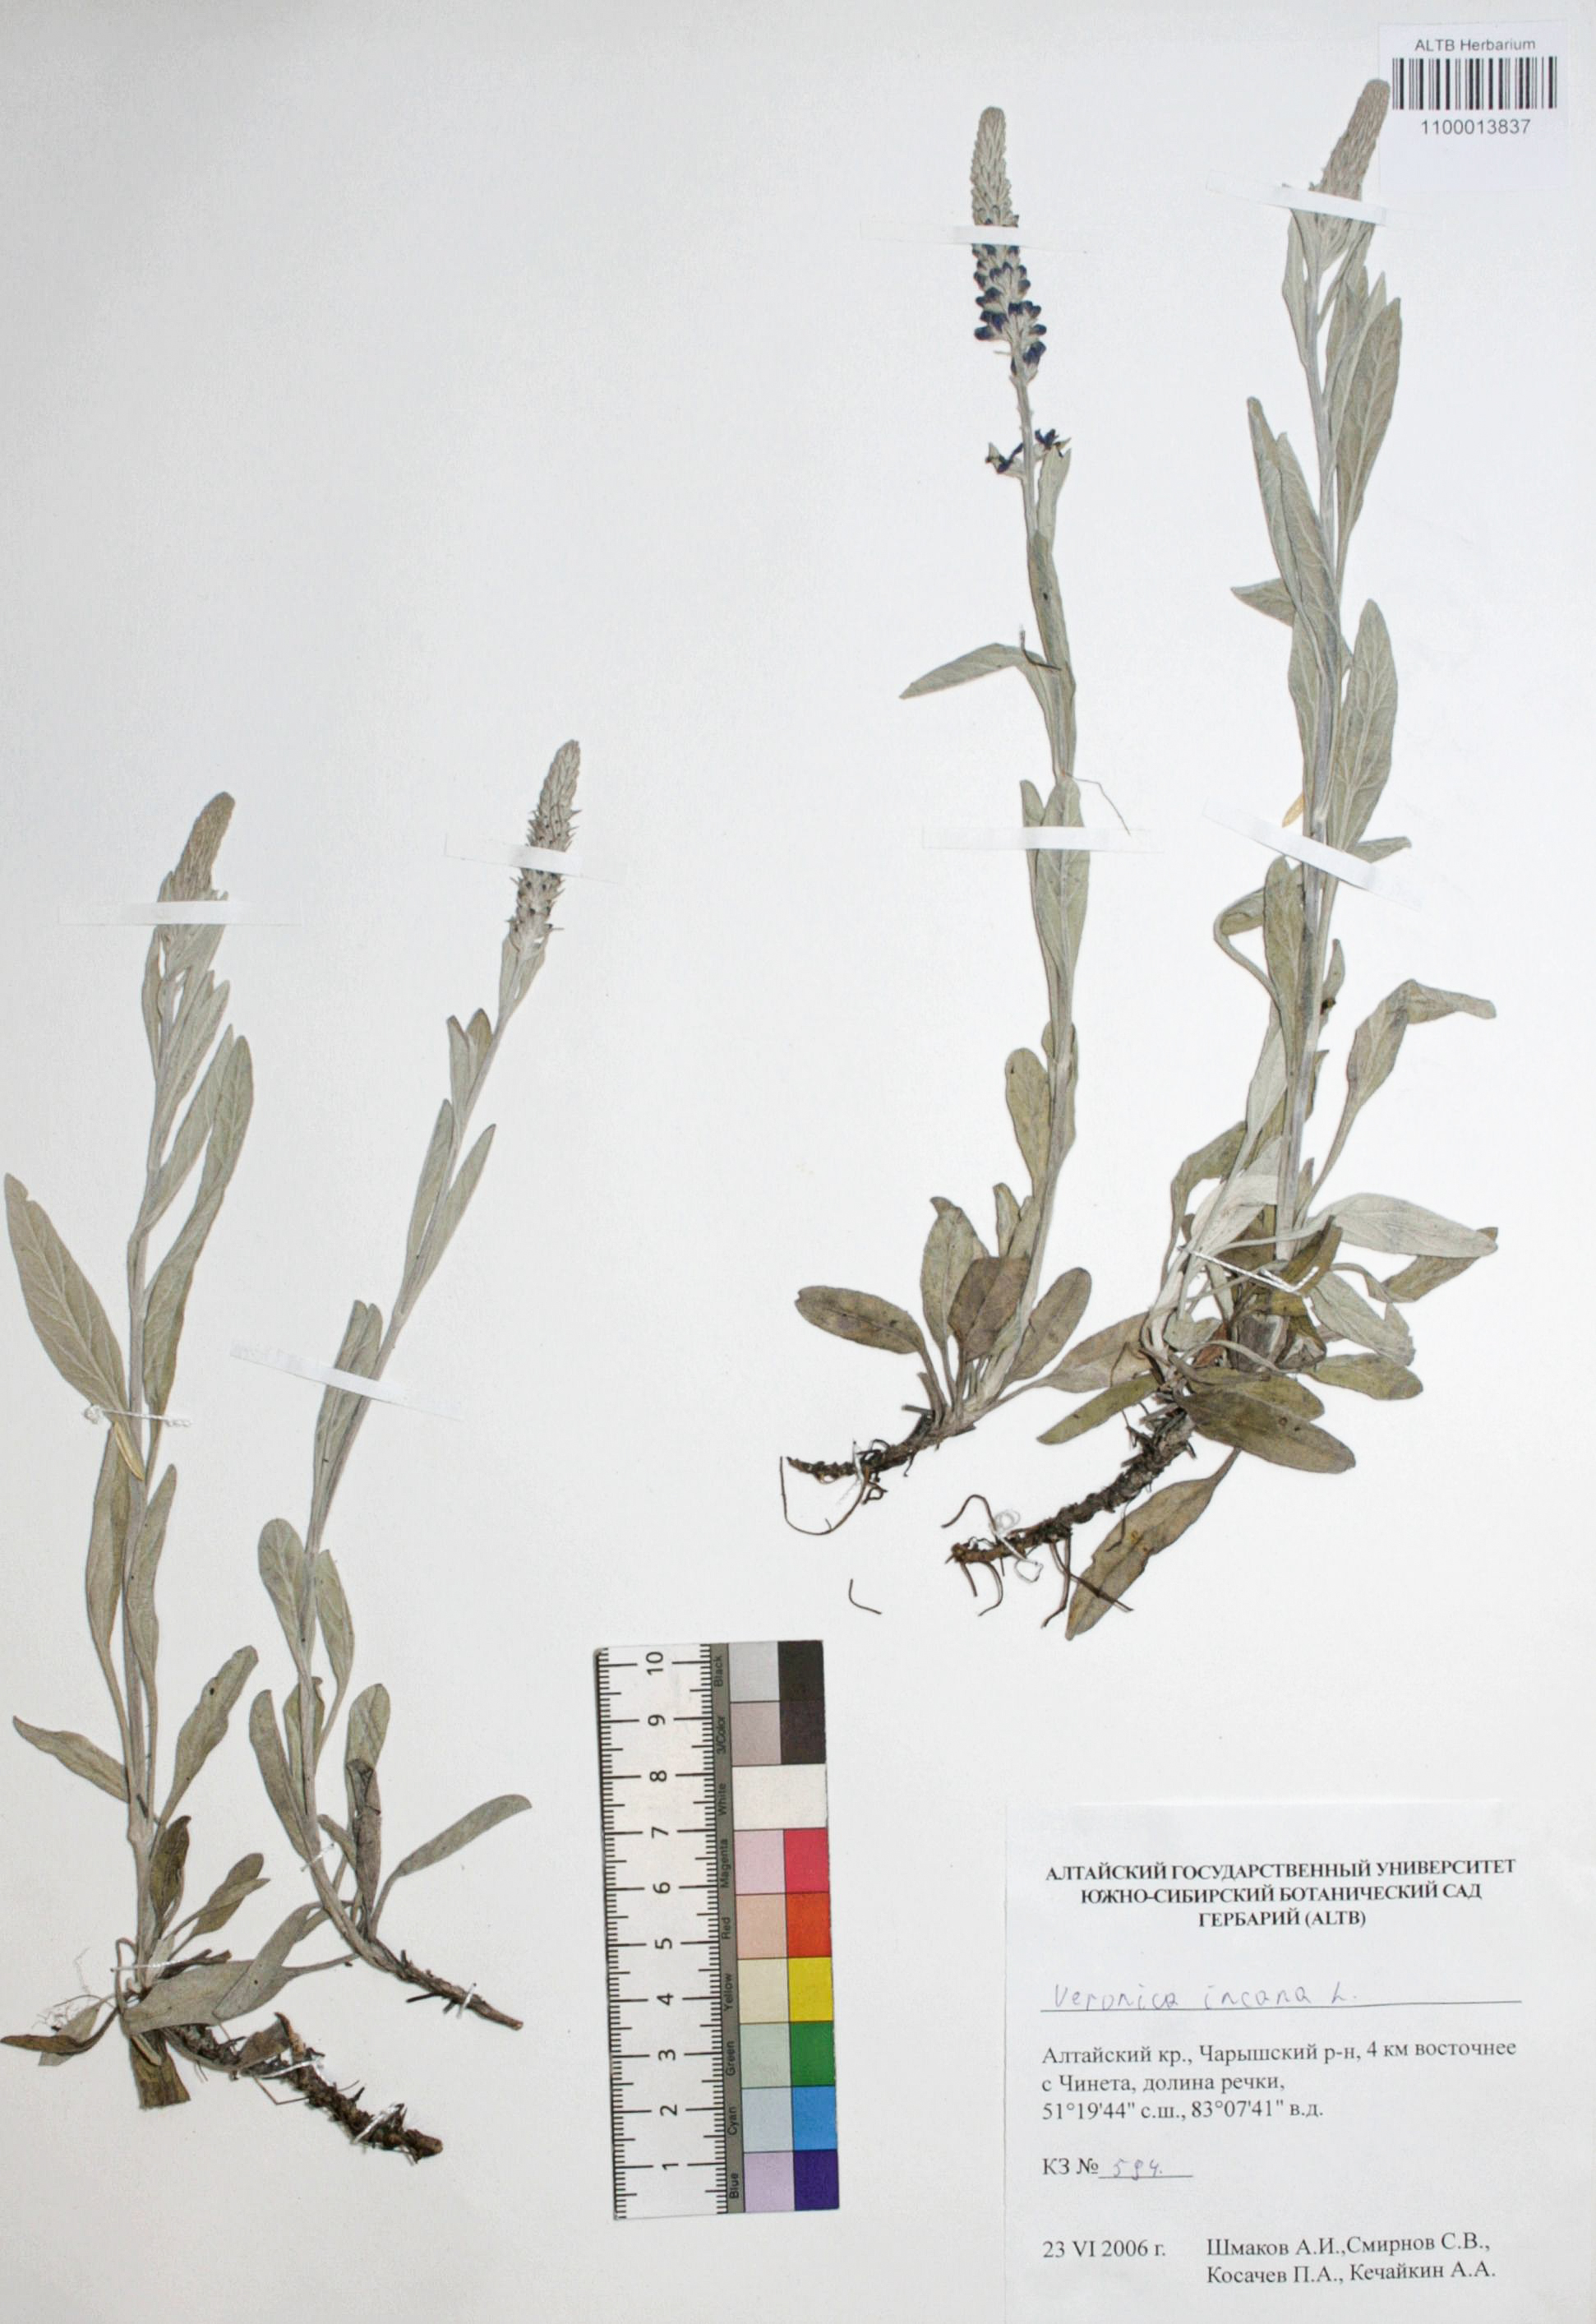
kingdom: Plantae
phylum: Tracheophyta
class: Magnoliopsida
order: Lamiales
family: Plantaginaceae
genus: Veronica
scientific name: Veronica incana
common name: Silver speedwell
